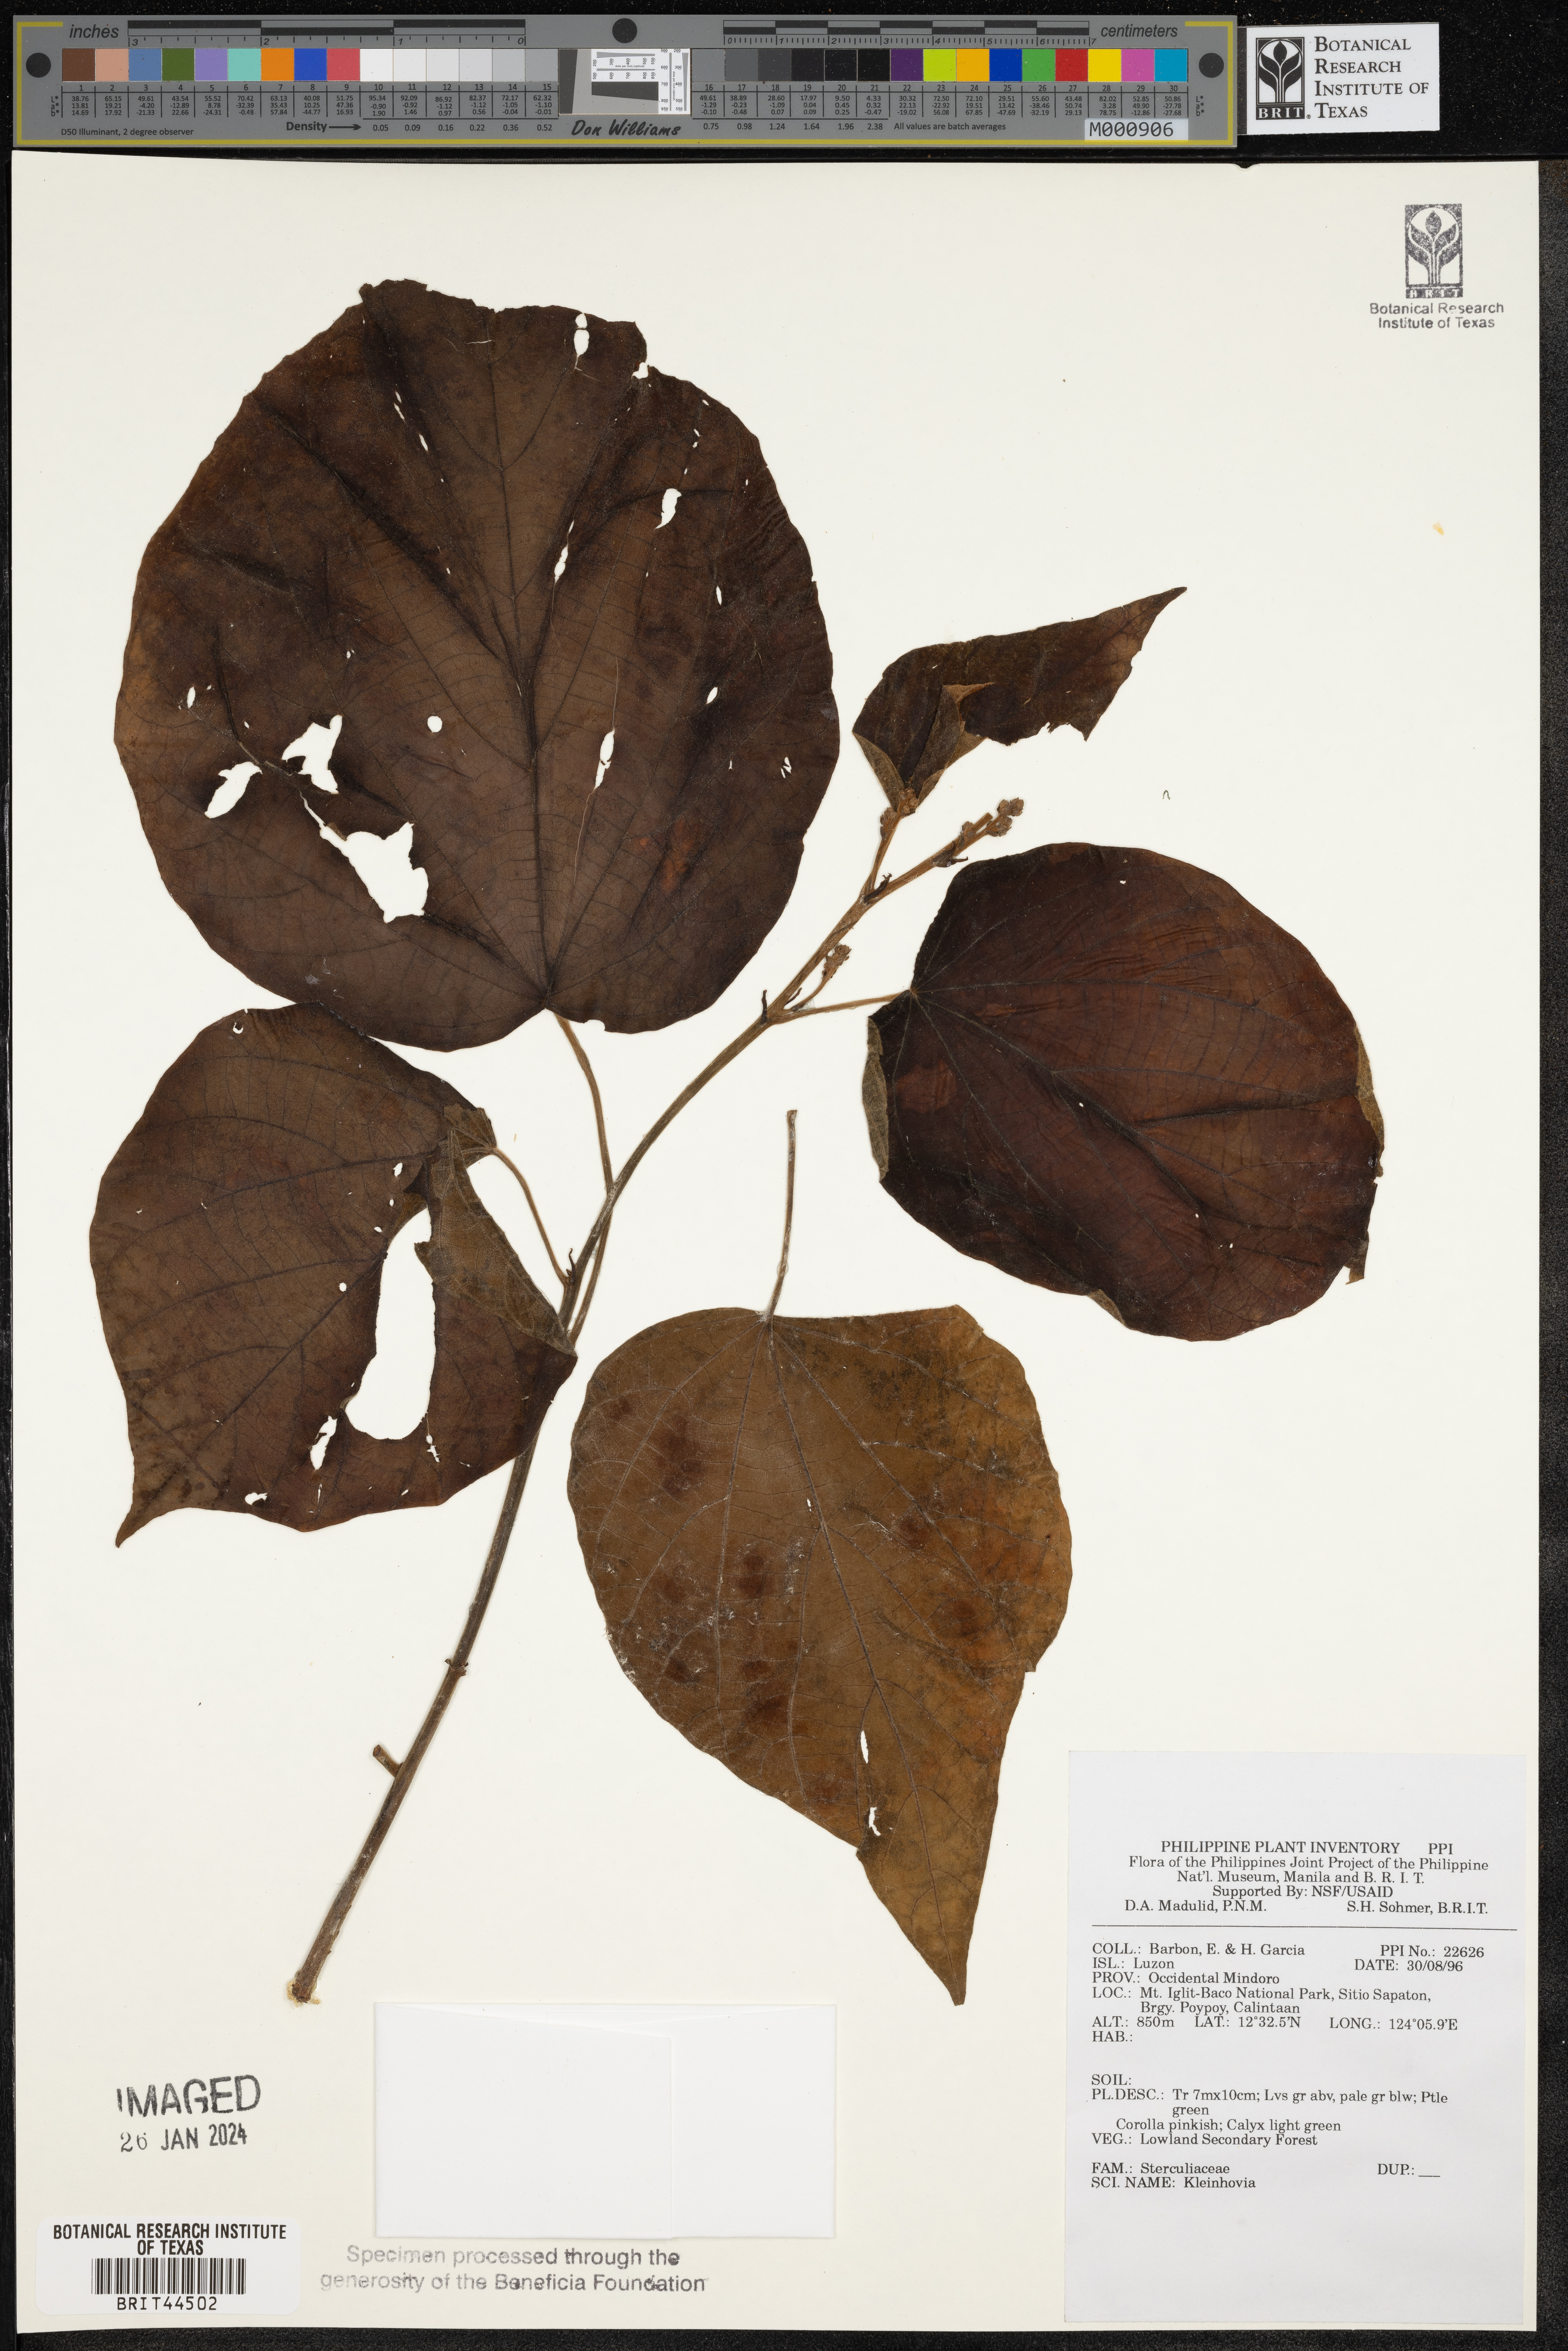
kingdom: Plantae
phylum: Tracheophyta
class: Magnoliopsida
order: Malvales
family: Malvaceae
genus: Kleinhovia
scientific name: Kleinhovia
